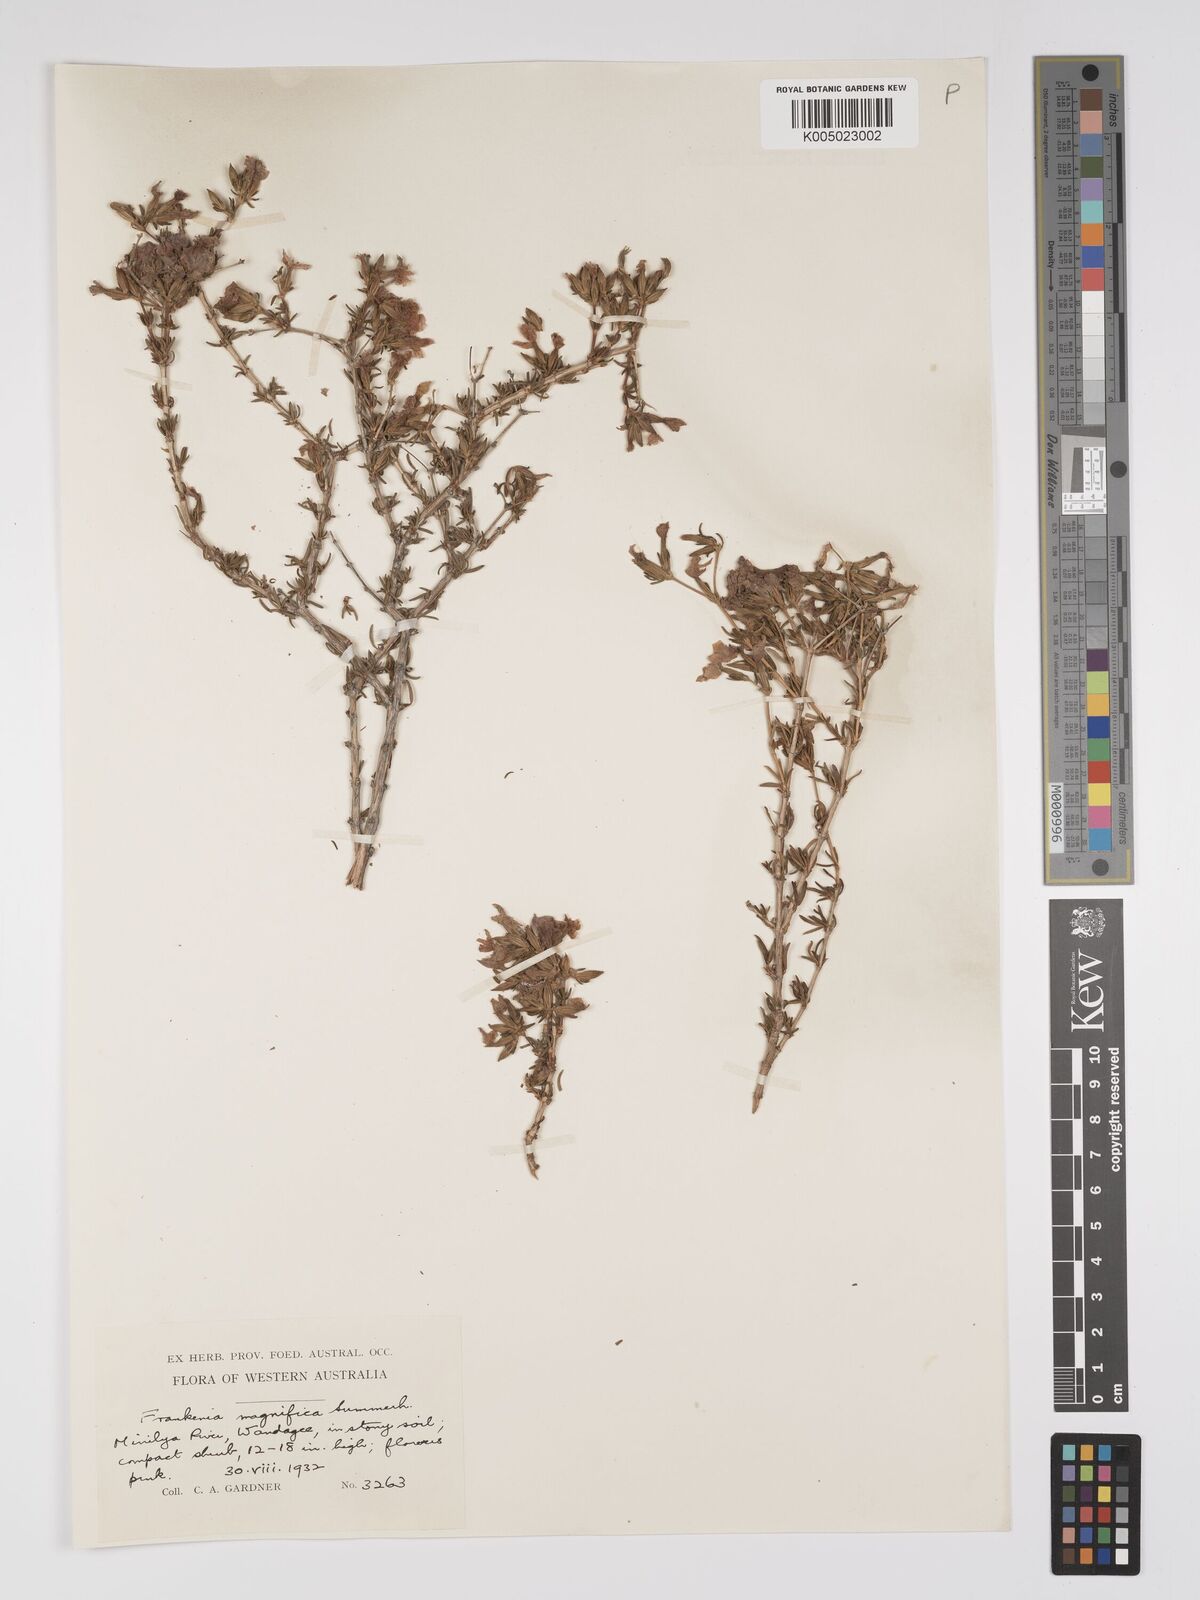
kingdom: Plantae
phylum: Tracheophyta
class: Magnoliopsida
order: Caryophyllales
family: Frankeniaceae
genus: Frankenia
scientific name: Frankenia magnifica
